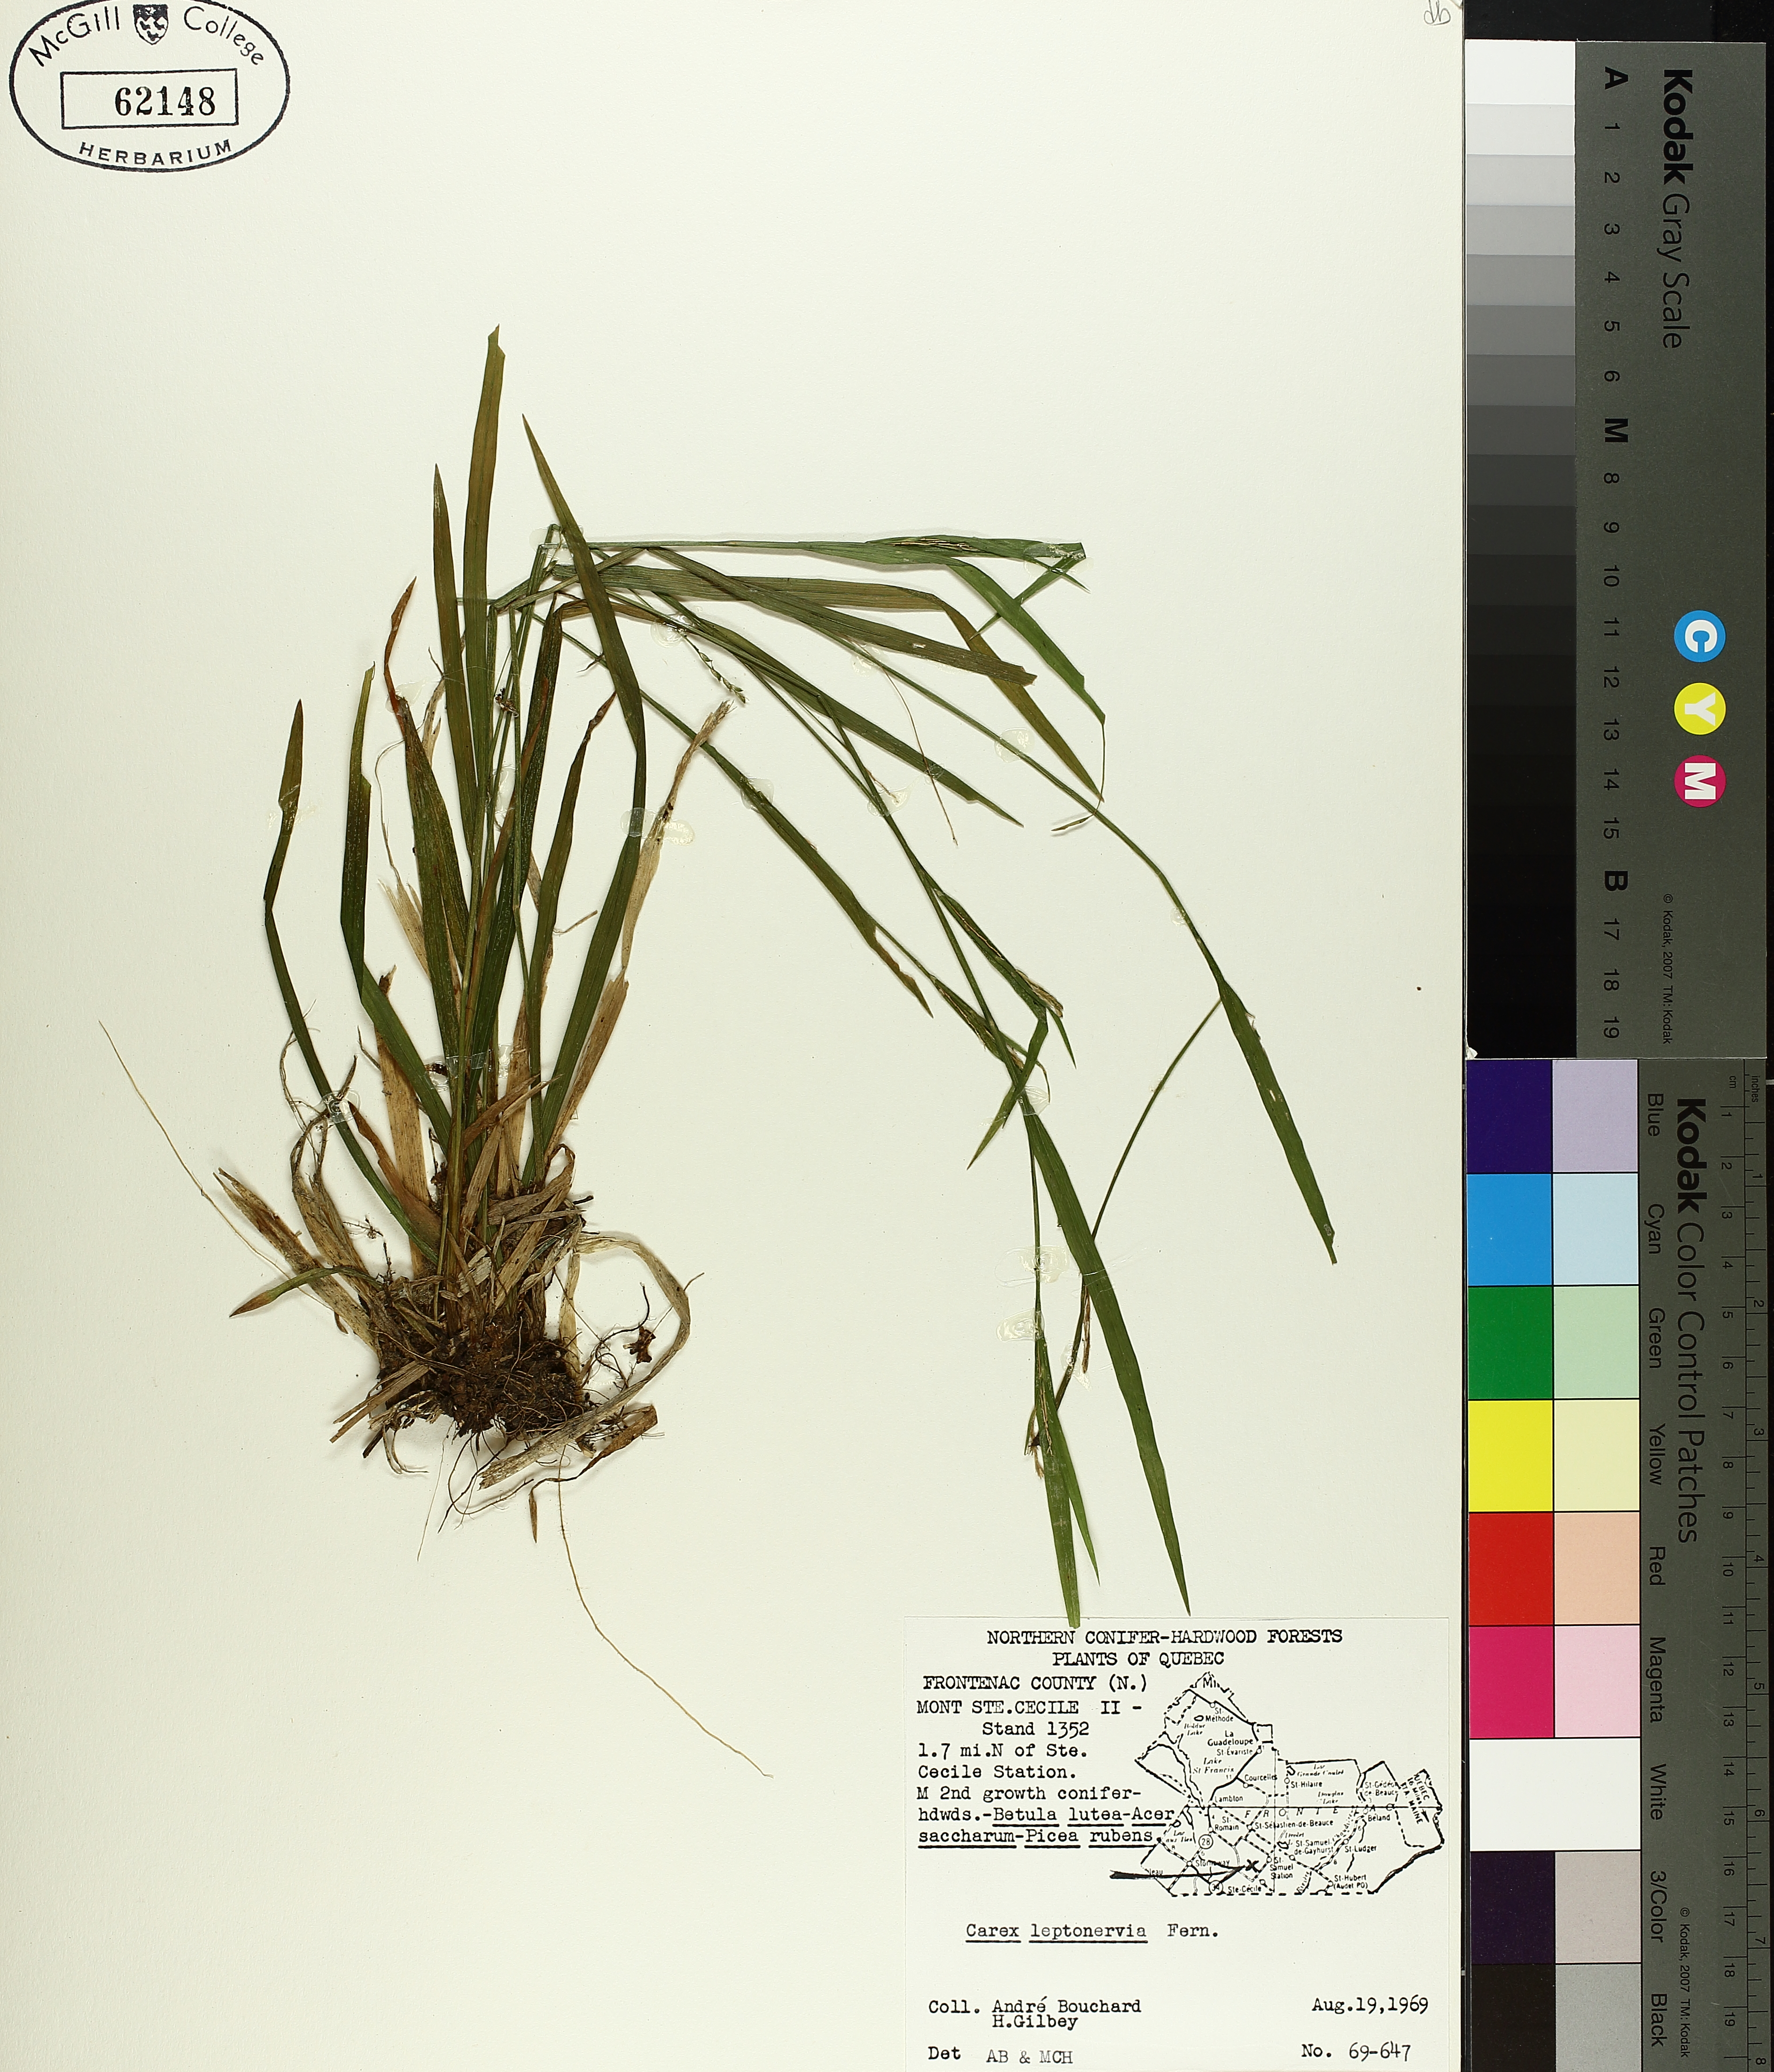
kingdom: Plantae
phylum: Tracheophyta
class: Liliopsida
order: Poales
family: Cyperaceae
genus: Carex
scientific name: Carex leptonervia
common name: Few-nerved wood sedge
